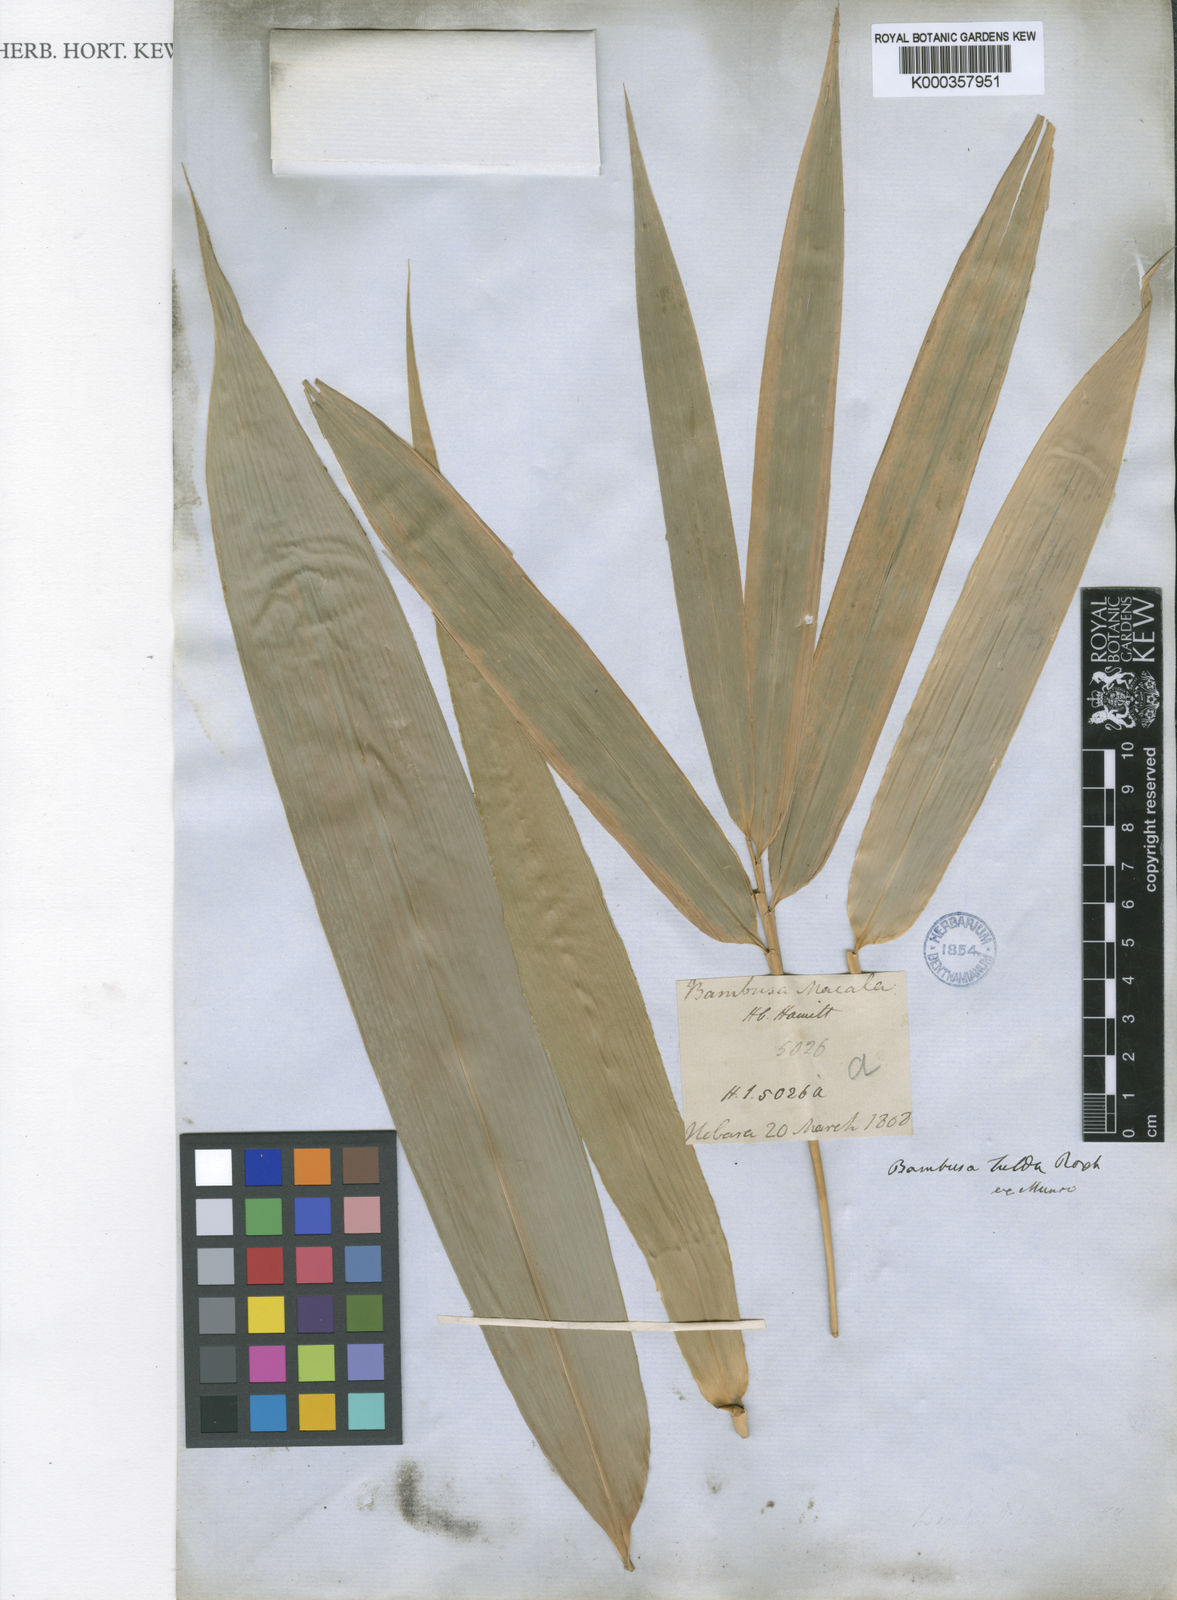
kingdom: Plantae
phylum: Tracheophyta
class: Liliopsida
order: Poales
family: Poaceae
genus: Bambusa
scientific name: Bambusa nutans
